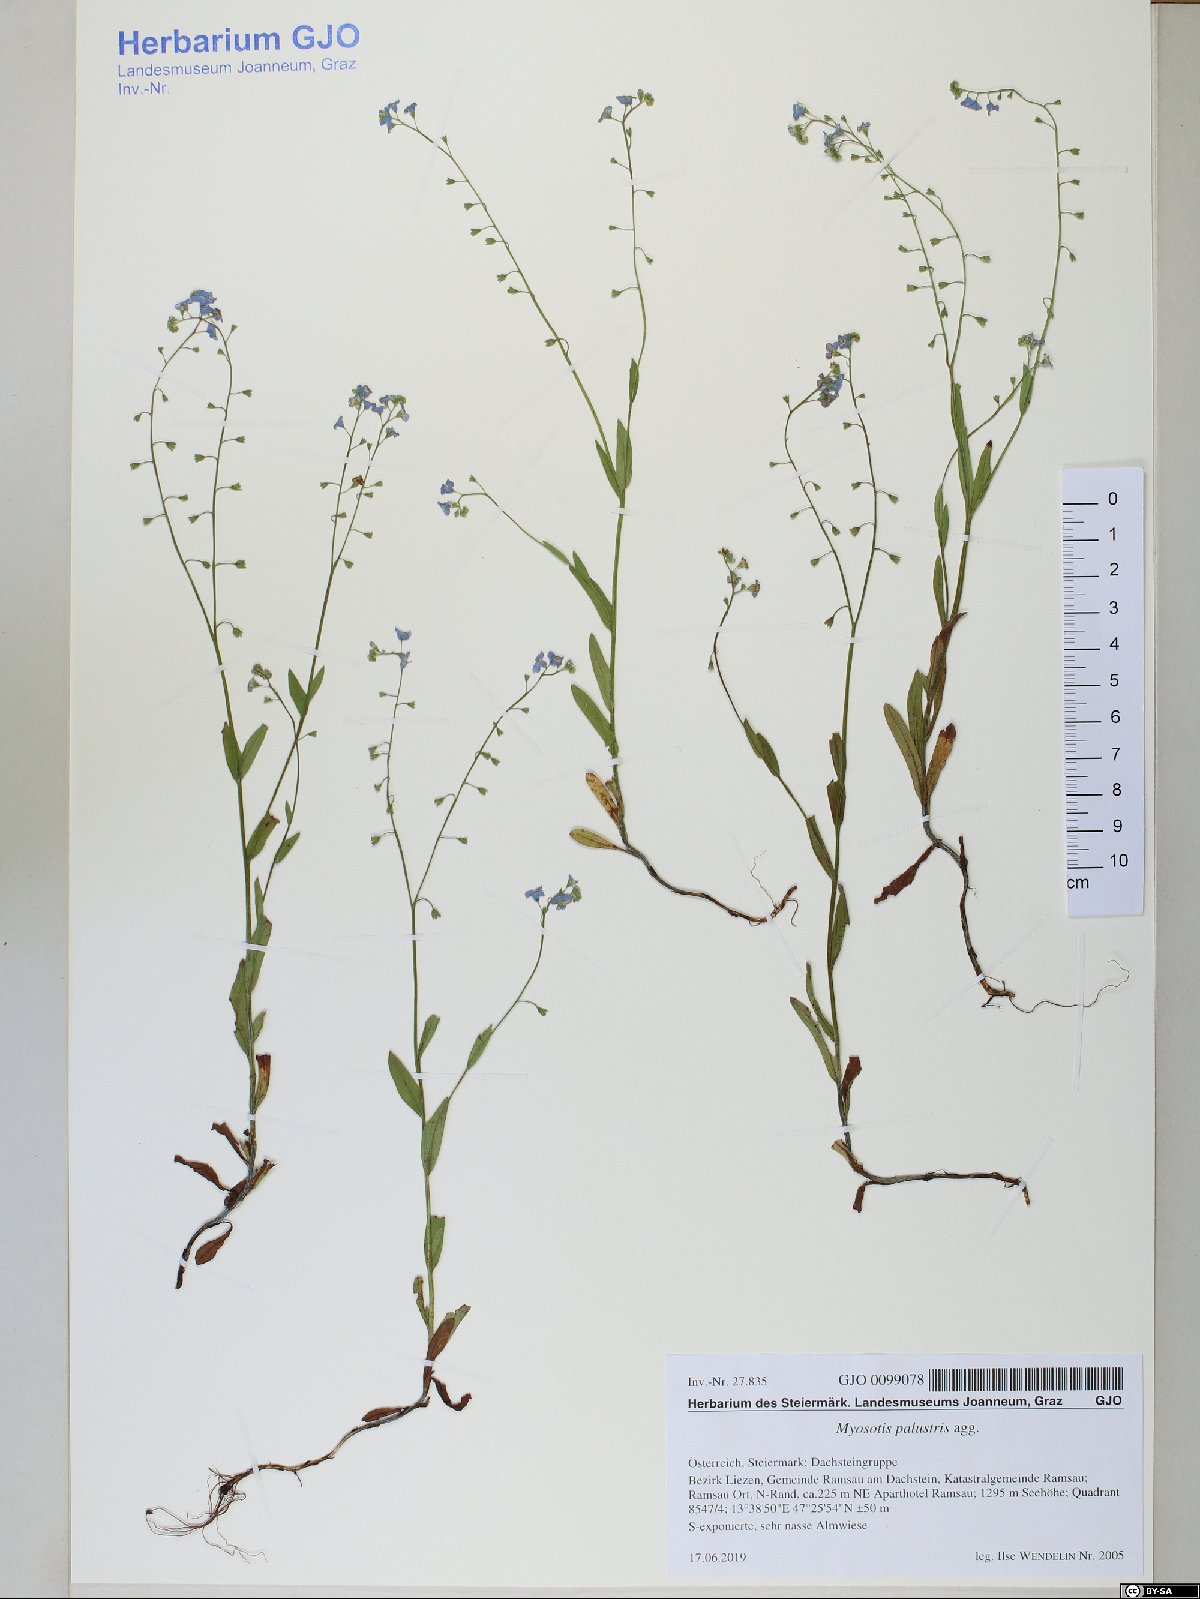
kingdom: Plantae
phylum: Tracheophyta
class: Magnoliopsida
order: Boraginales
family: Boraginaceae
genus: Myosotis
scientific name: Myosotis nemorosa
